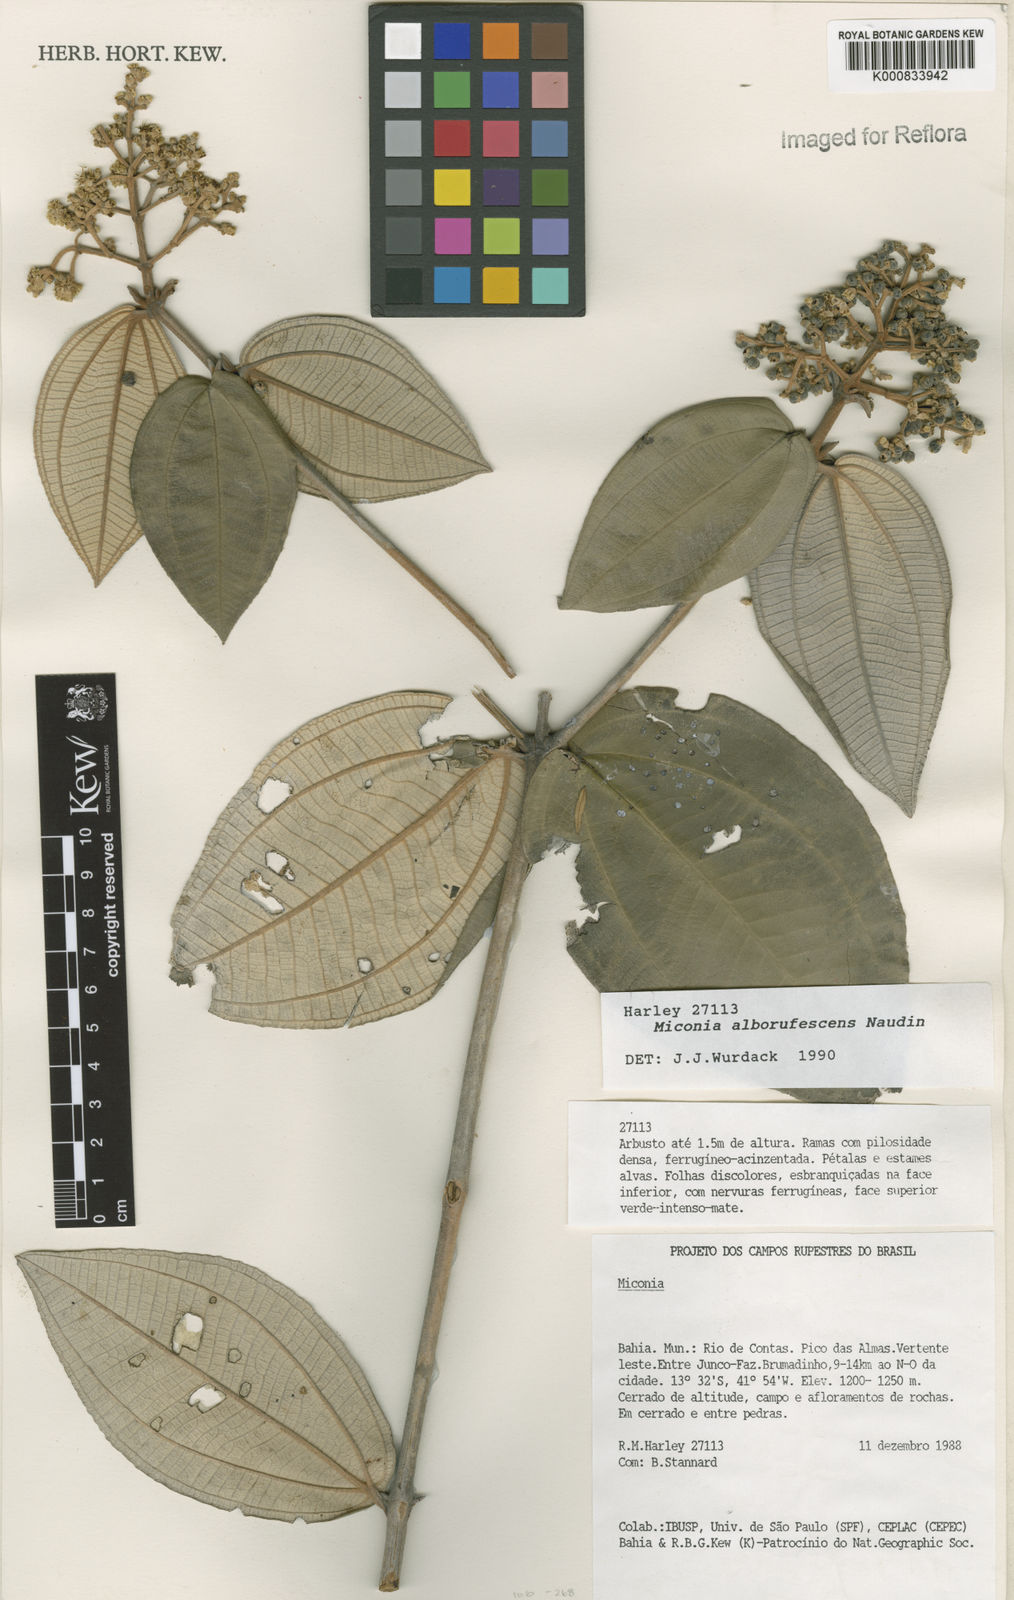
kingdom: Plantae
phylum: Tracheophyta
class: Magnoliopsida
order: Myrtales
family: Melastomataceae
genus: Miconia
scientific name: Miconia alborufescens
